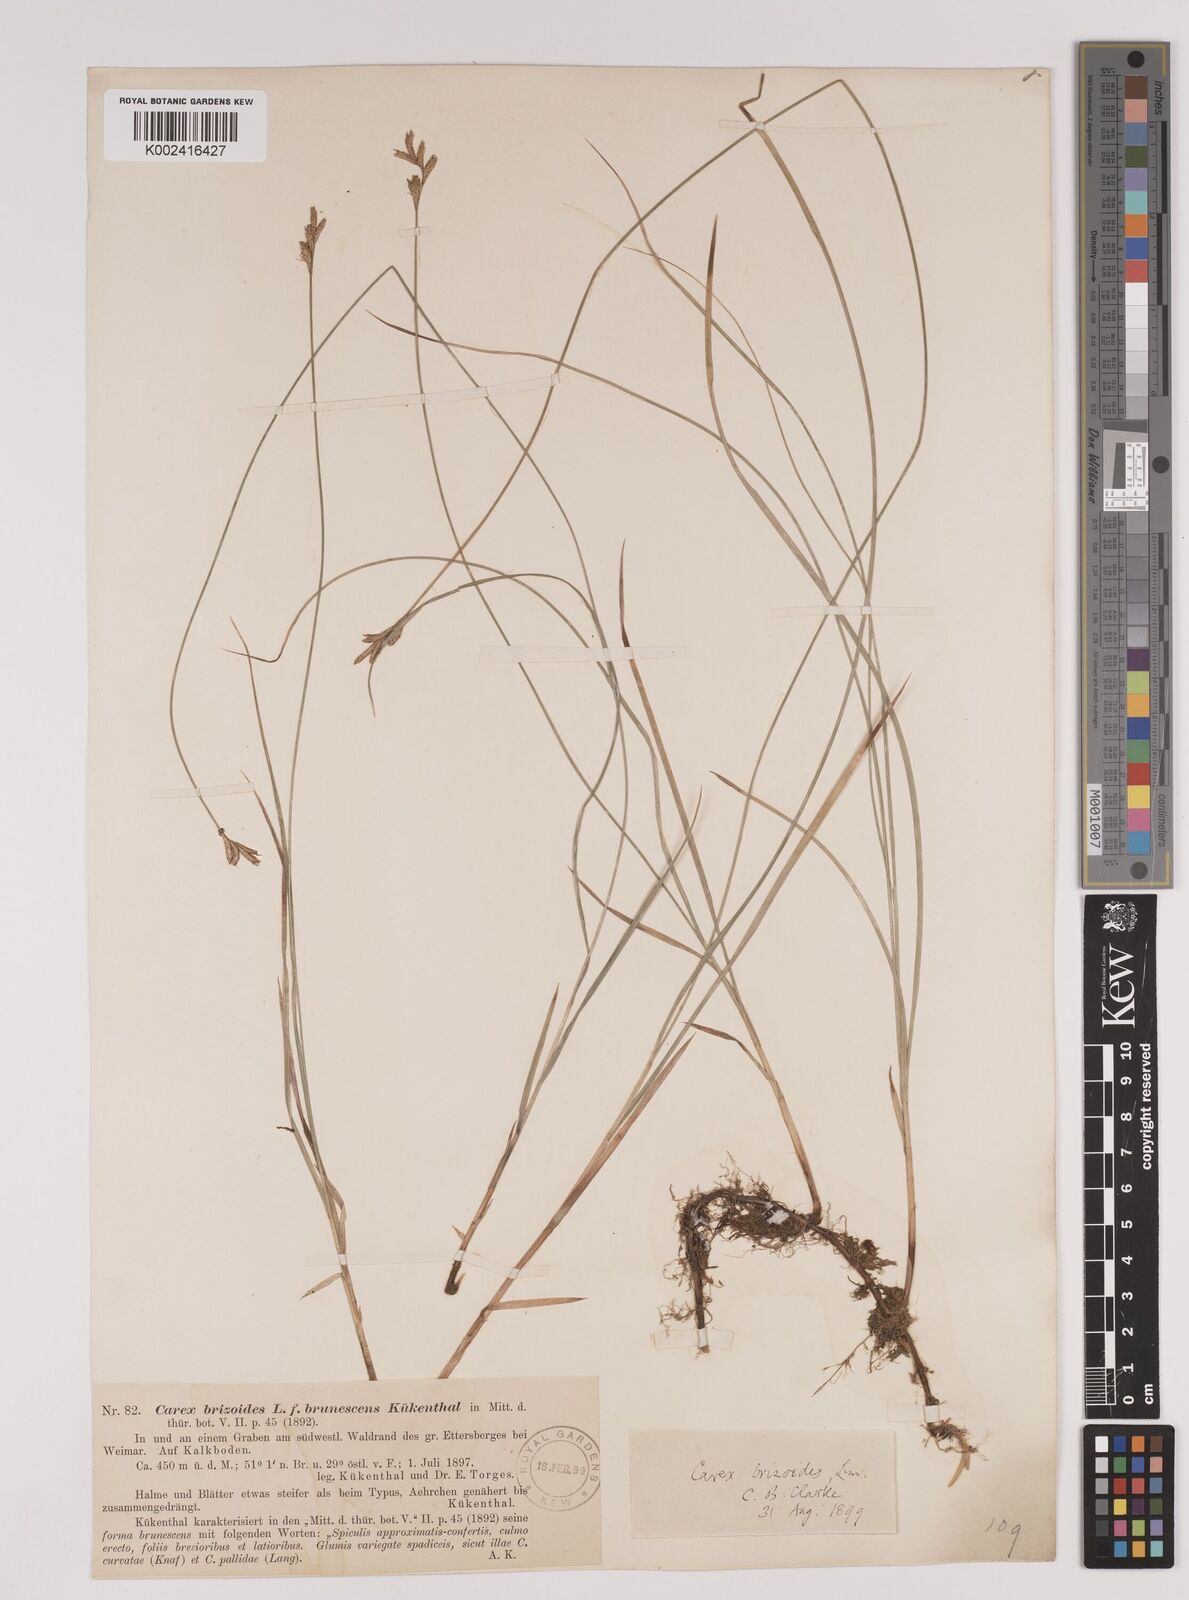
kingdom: Plantae
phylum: Tracheophyta
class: Liliopsida
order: Poales
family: Cyperaceae
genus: Carex
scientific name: Carex brizoides
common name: Quaking-grass sedge
